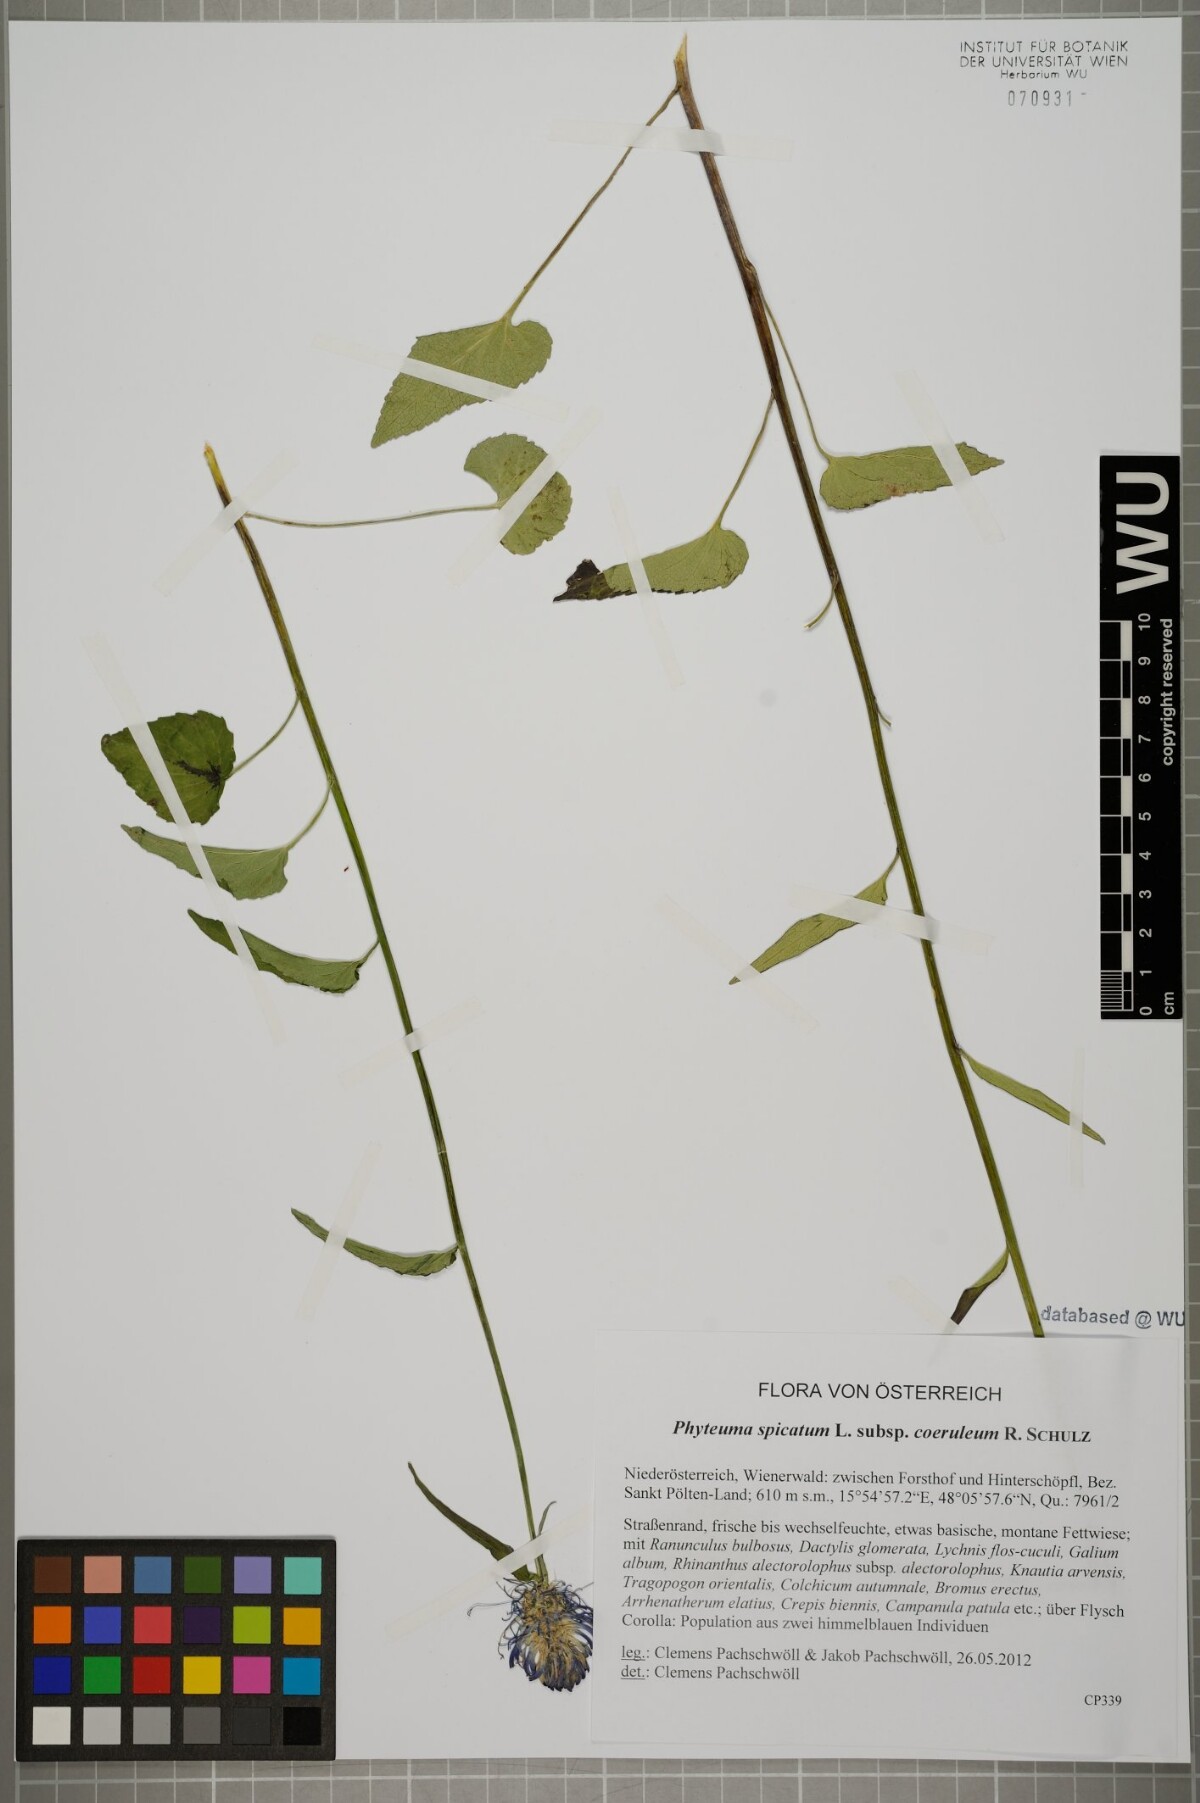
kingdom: Plantae
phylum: Tracheophyta
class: Magnoliopsida
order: Asterales
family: Campanulaceae
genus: Phyteuma
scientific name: Phyteuma spicatum
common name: Spiked rampion
